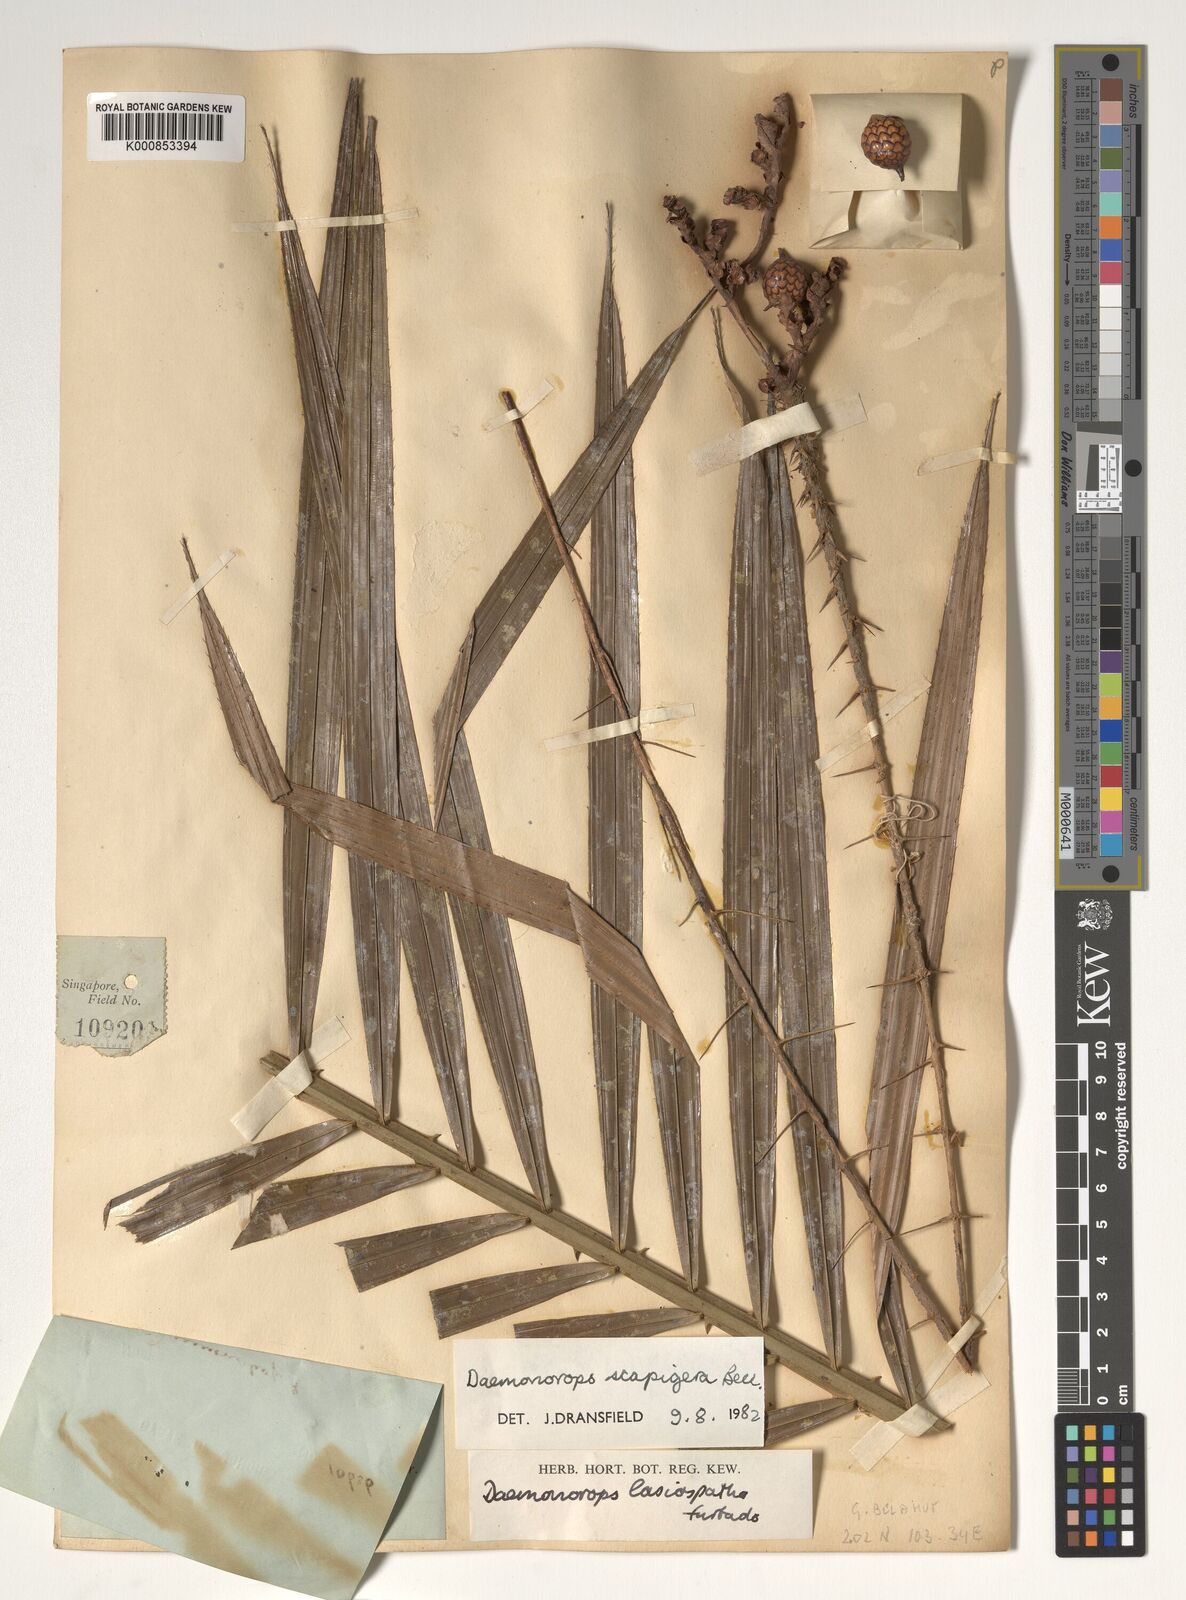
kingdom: Plantae
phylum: Tracheophyta
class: Liliopsida
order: Arecales
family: Arecaceae
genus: Calamus
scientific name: Calamus scapigerus
